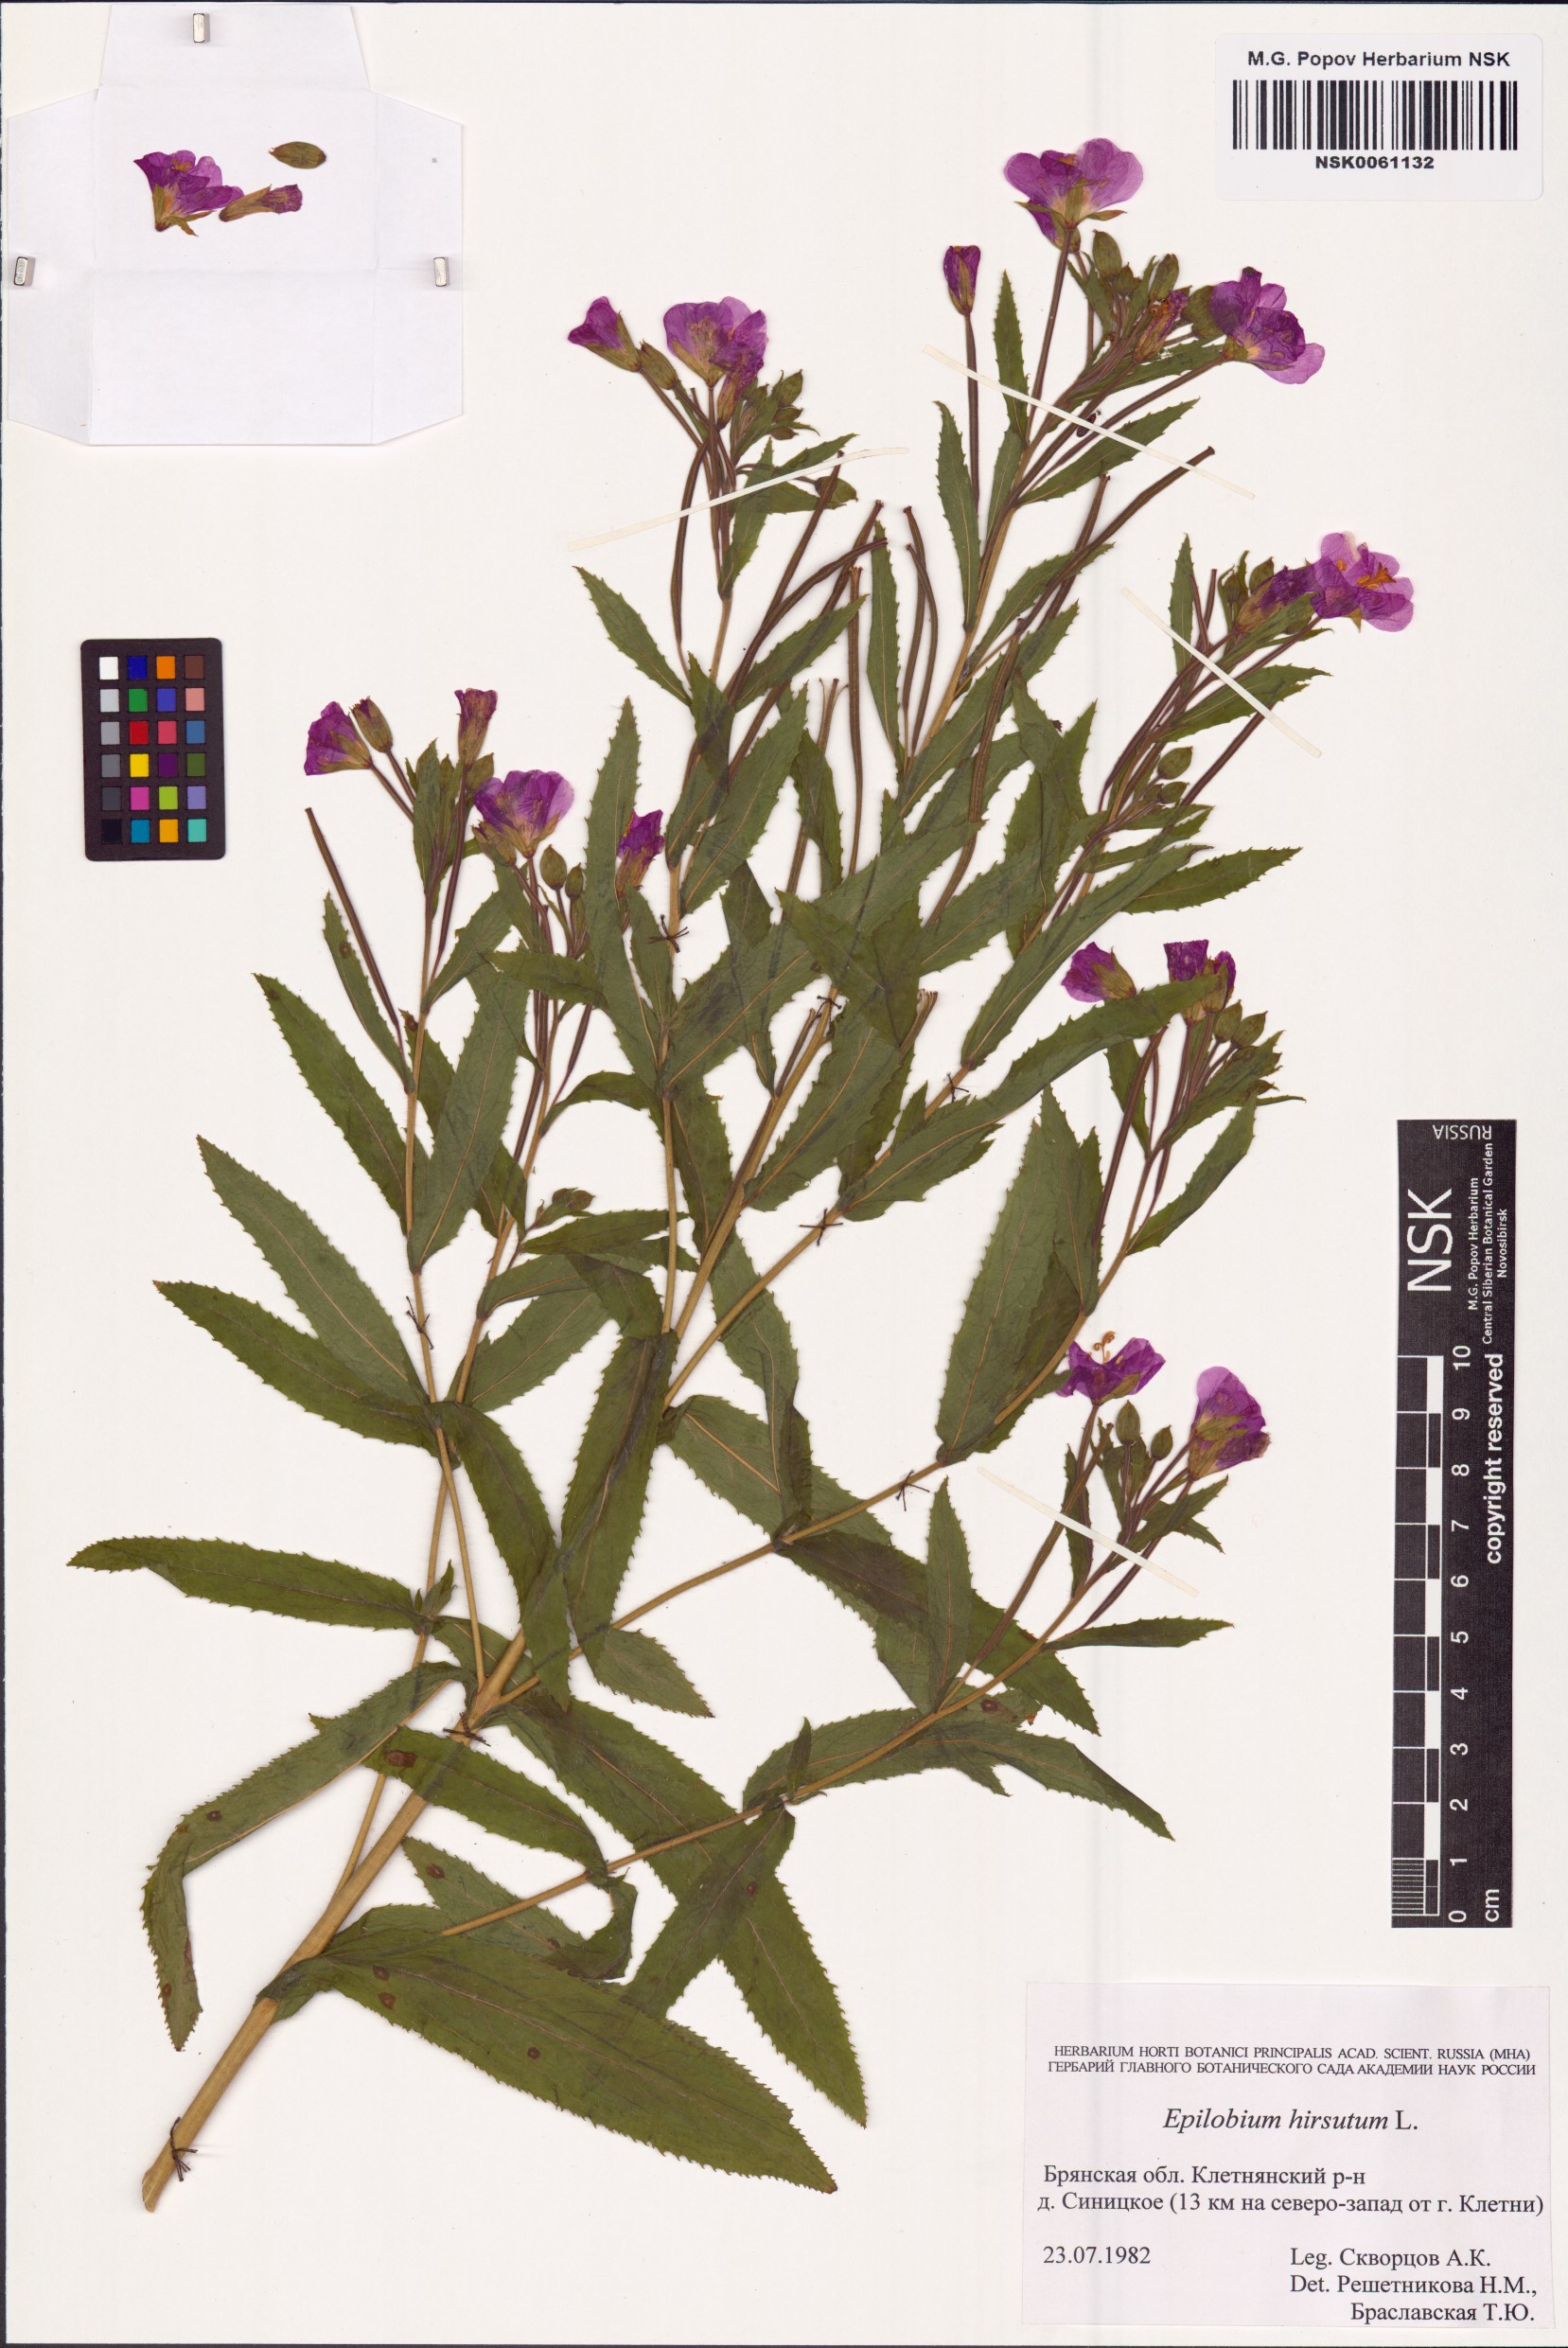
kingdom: Plantae
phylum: Tracheophyta
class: Magnoliopsida
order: Myrtales
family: Onagraceae
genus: Epilobium
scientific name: Epilobium hirsutum
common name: Great willowherb
